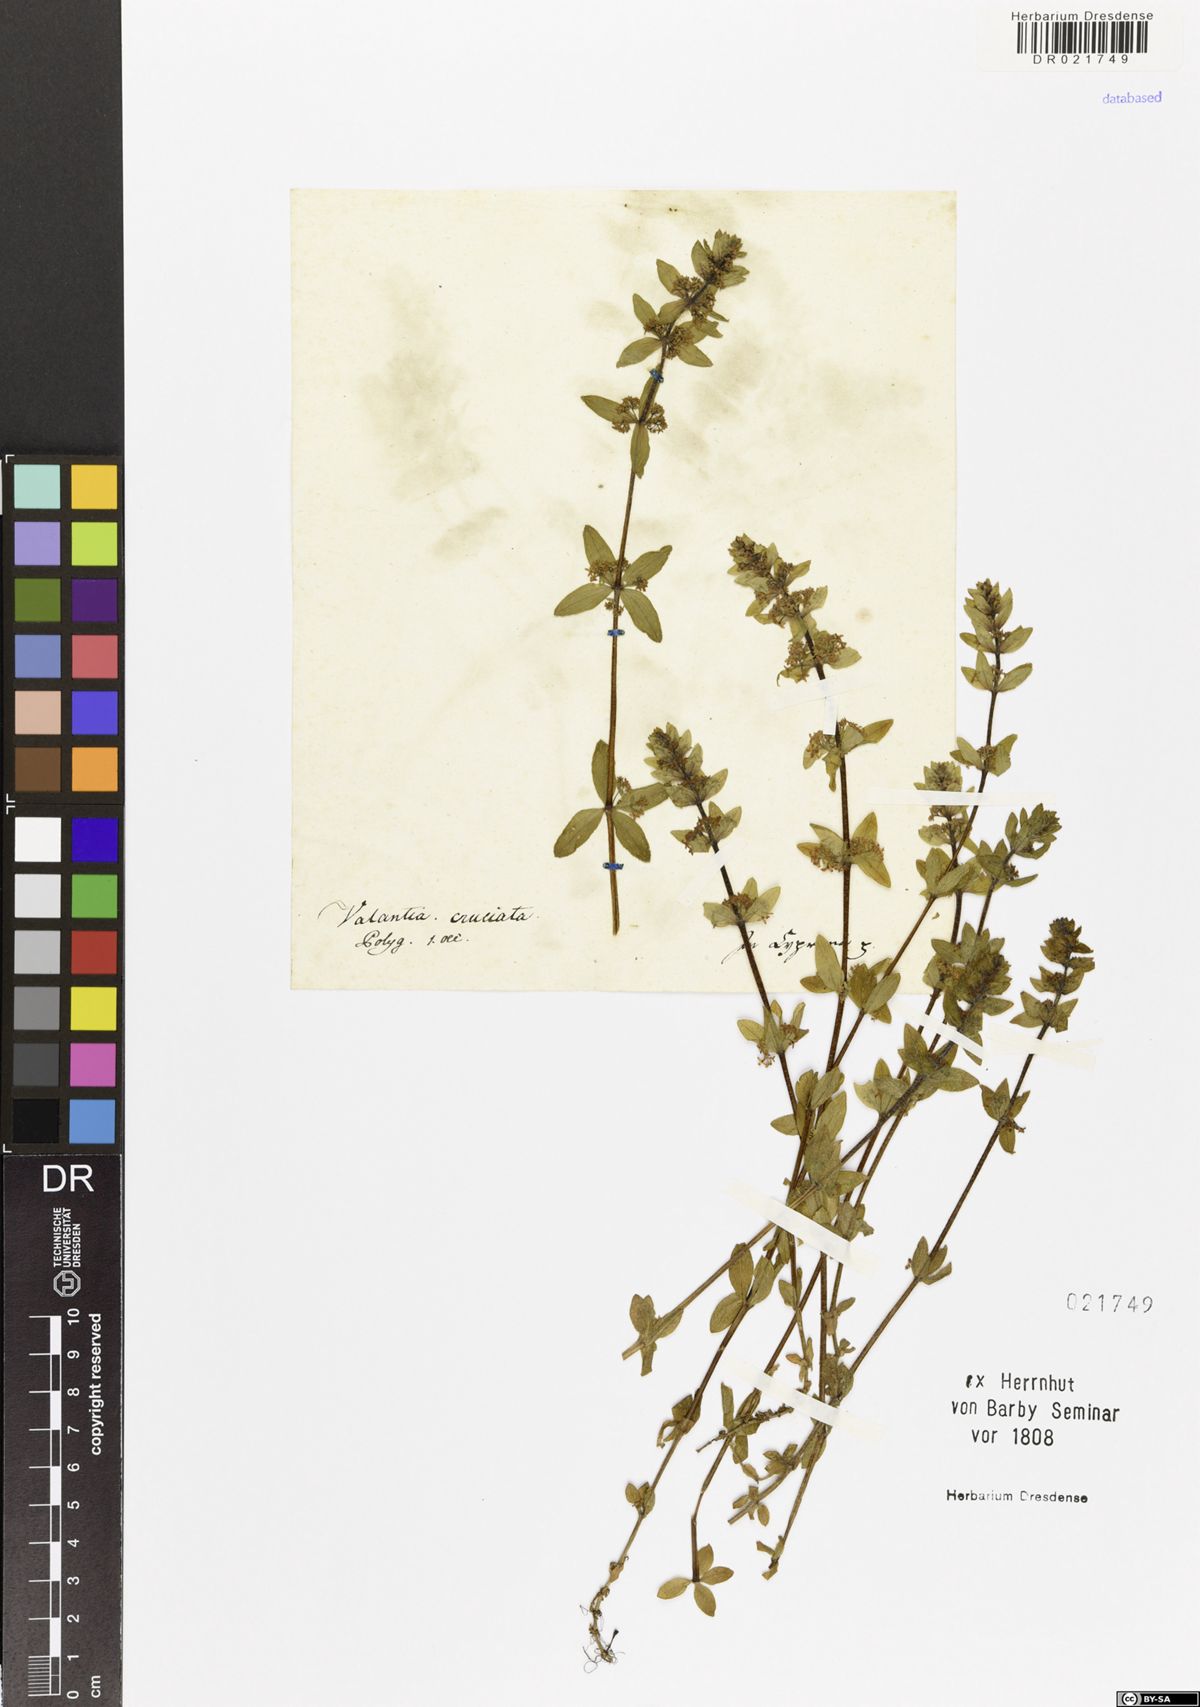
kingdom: Plantae
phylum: Tracheophyta
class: Magnoliopsida
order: Gentianales
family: Rubiaceae
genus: Cruciata
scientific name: Cruciata laevipes
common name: Crosswort
